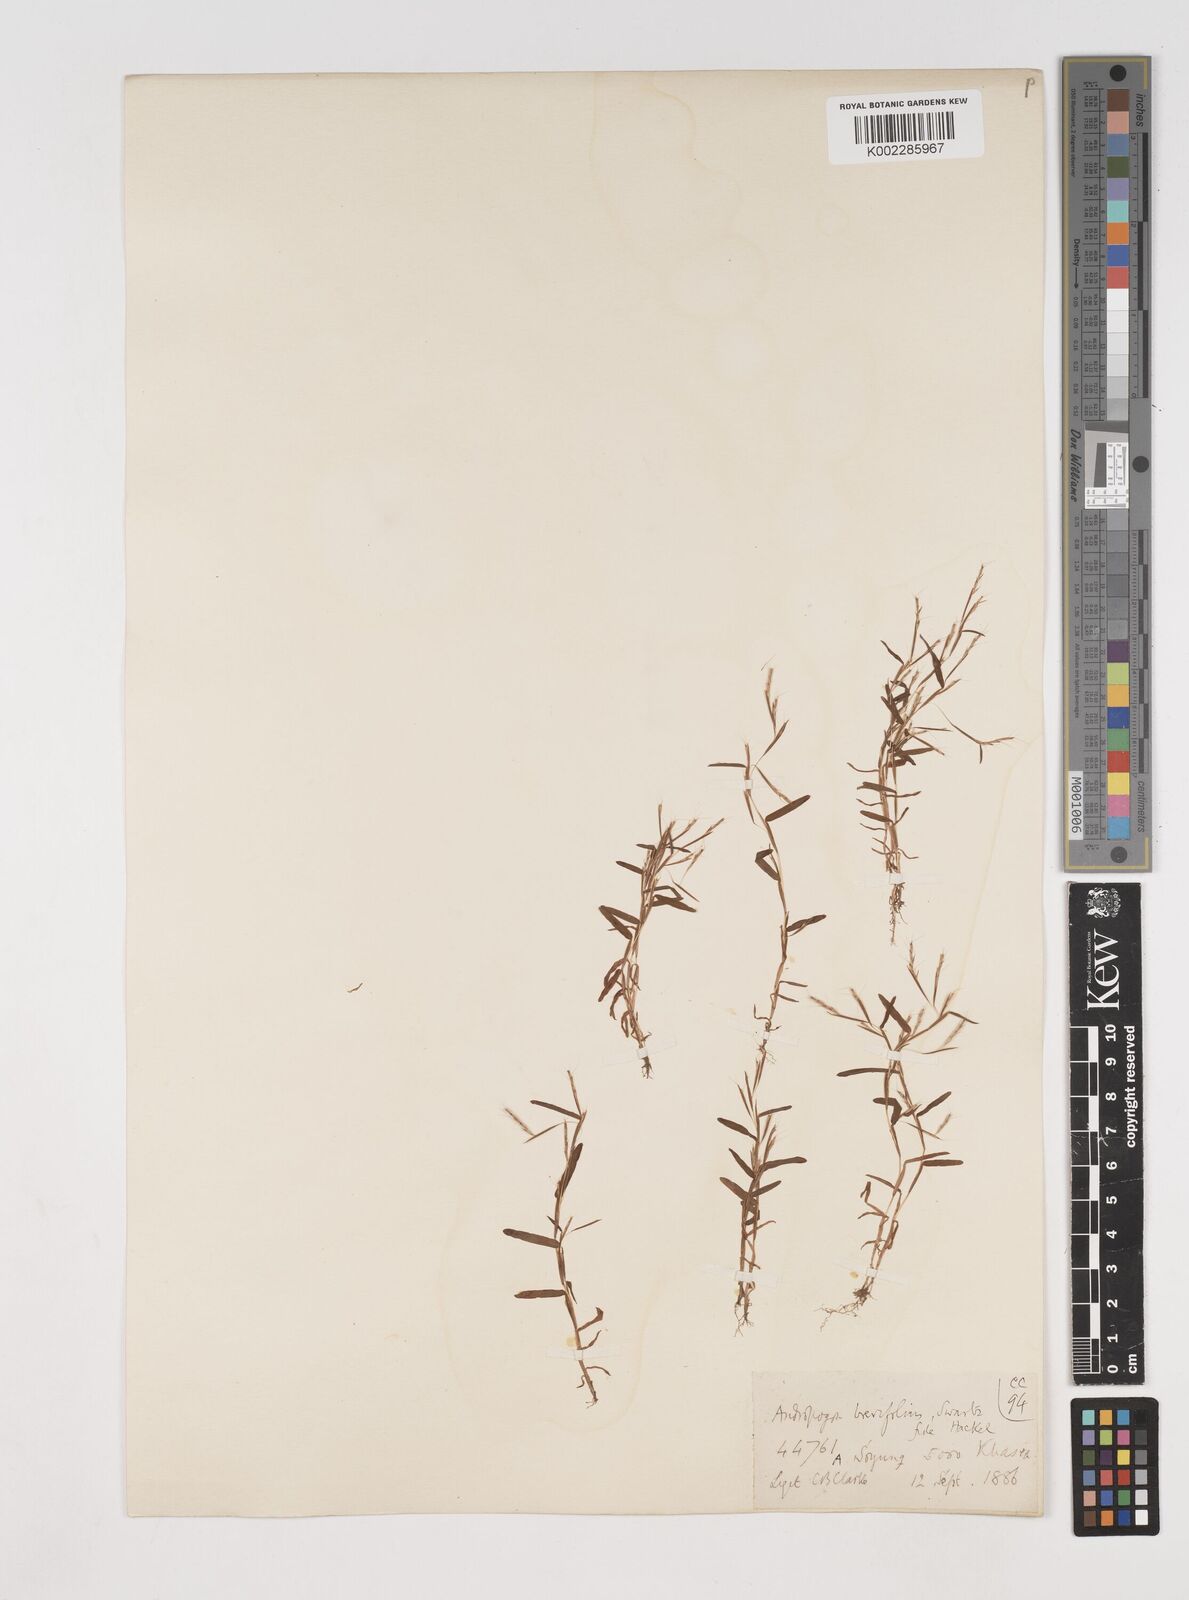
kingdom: Plantae
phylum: Tracheophyta
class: Liliopsida
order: Poales
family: Poaceae
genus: Schizachyrium
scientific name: Schizachyrium brevifolium
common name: Serillo dulce
